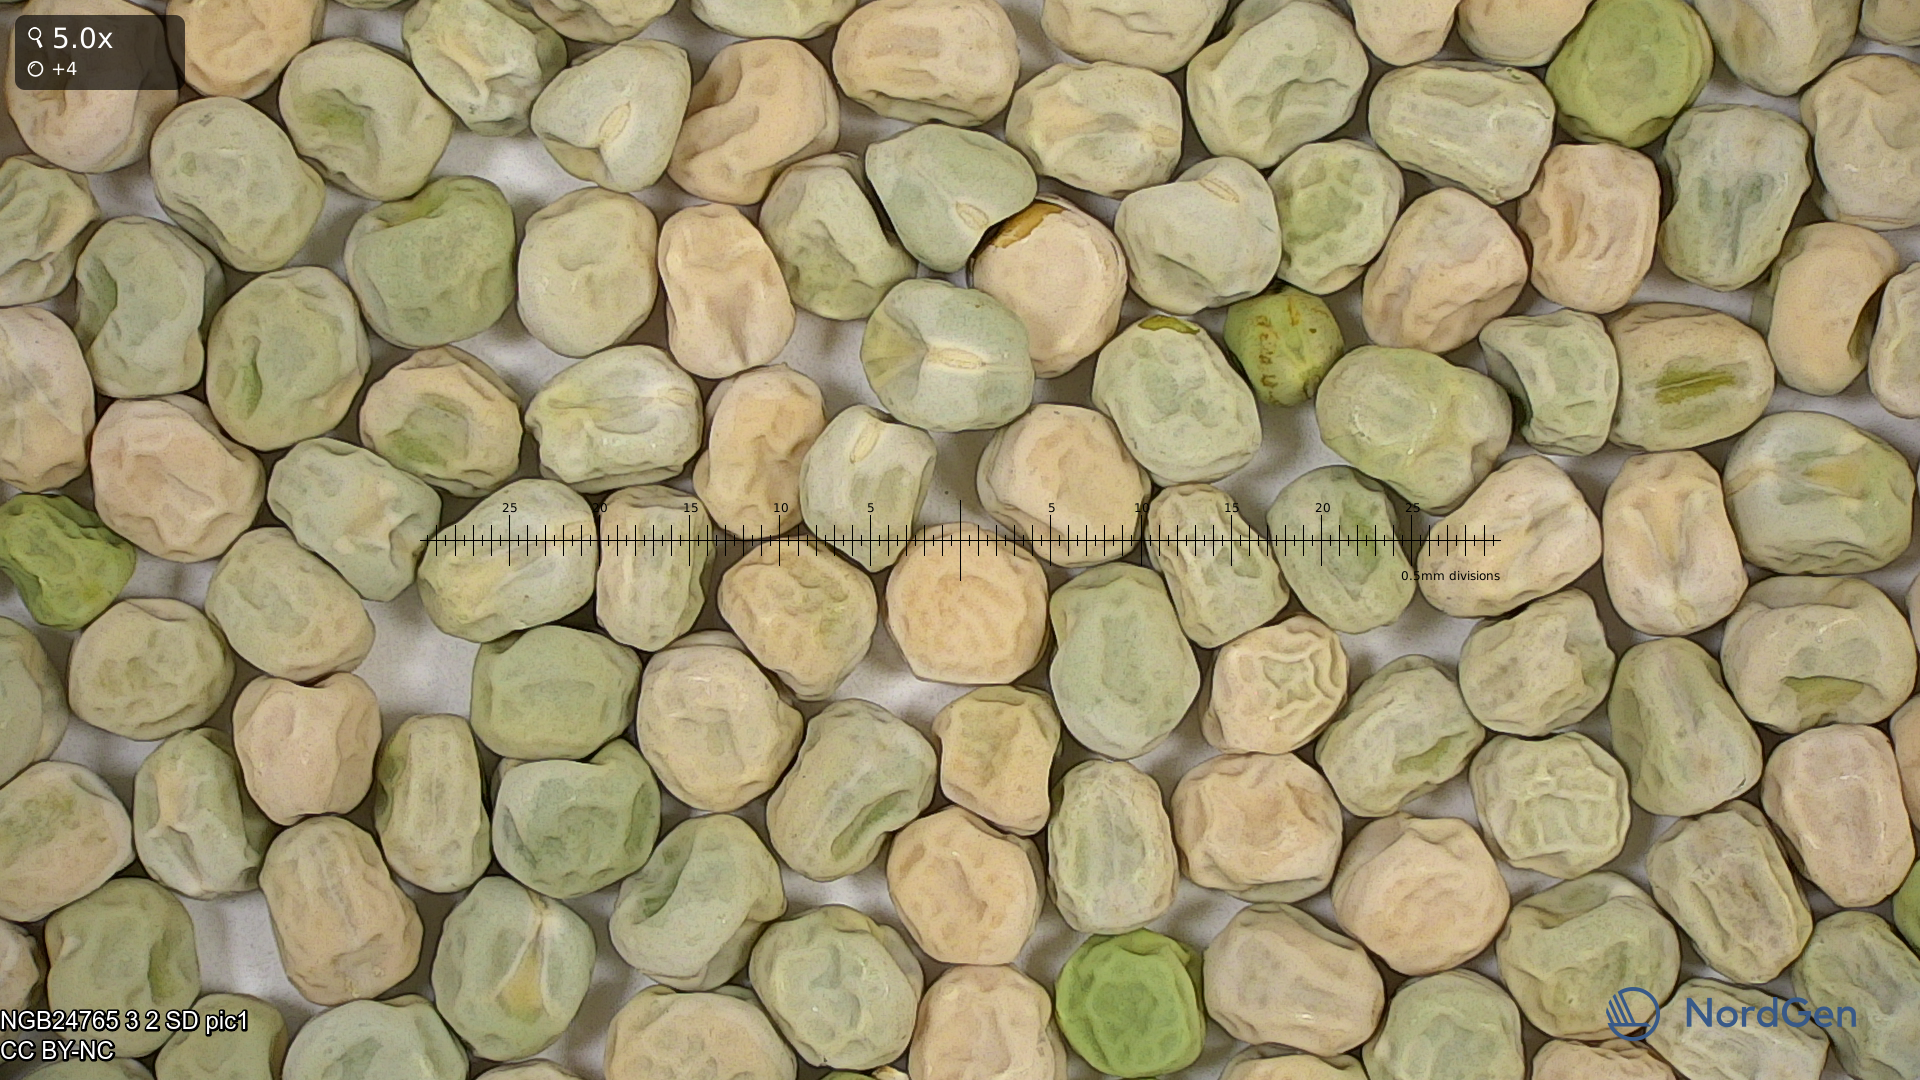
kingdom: Plantae
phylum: Tracheophyta
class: Magnoliopsida
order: Fabales
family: Fabaceae
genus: Lathyrus
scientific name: Lathyrus oleraceus
